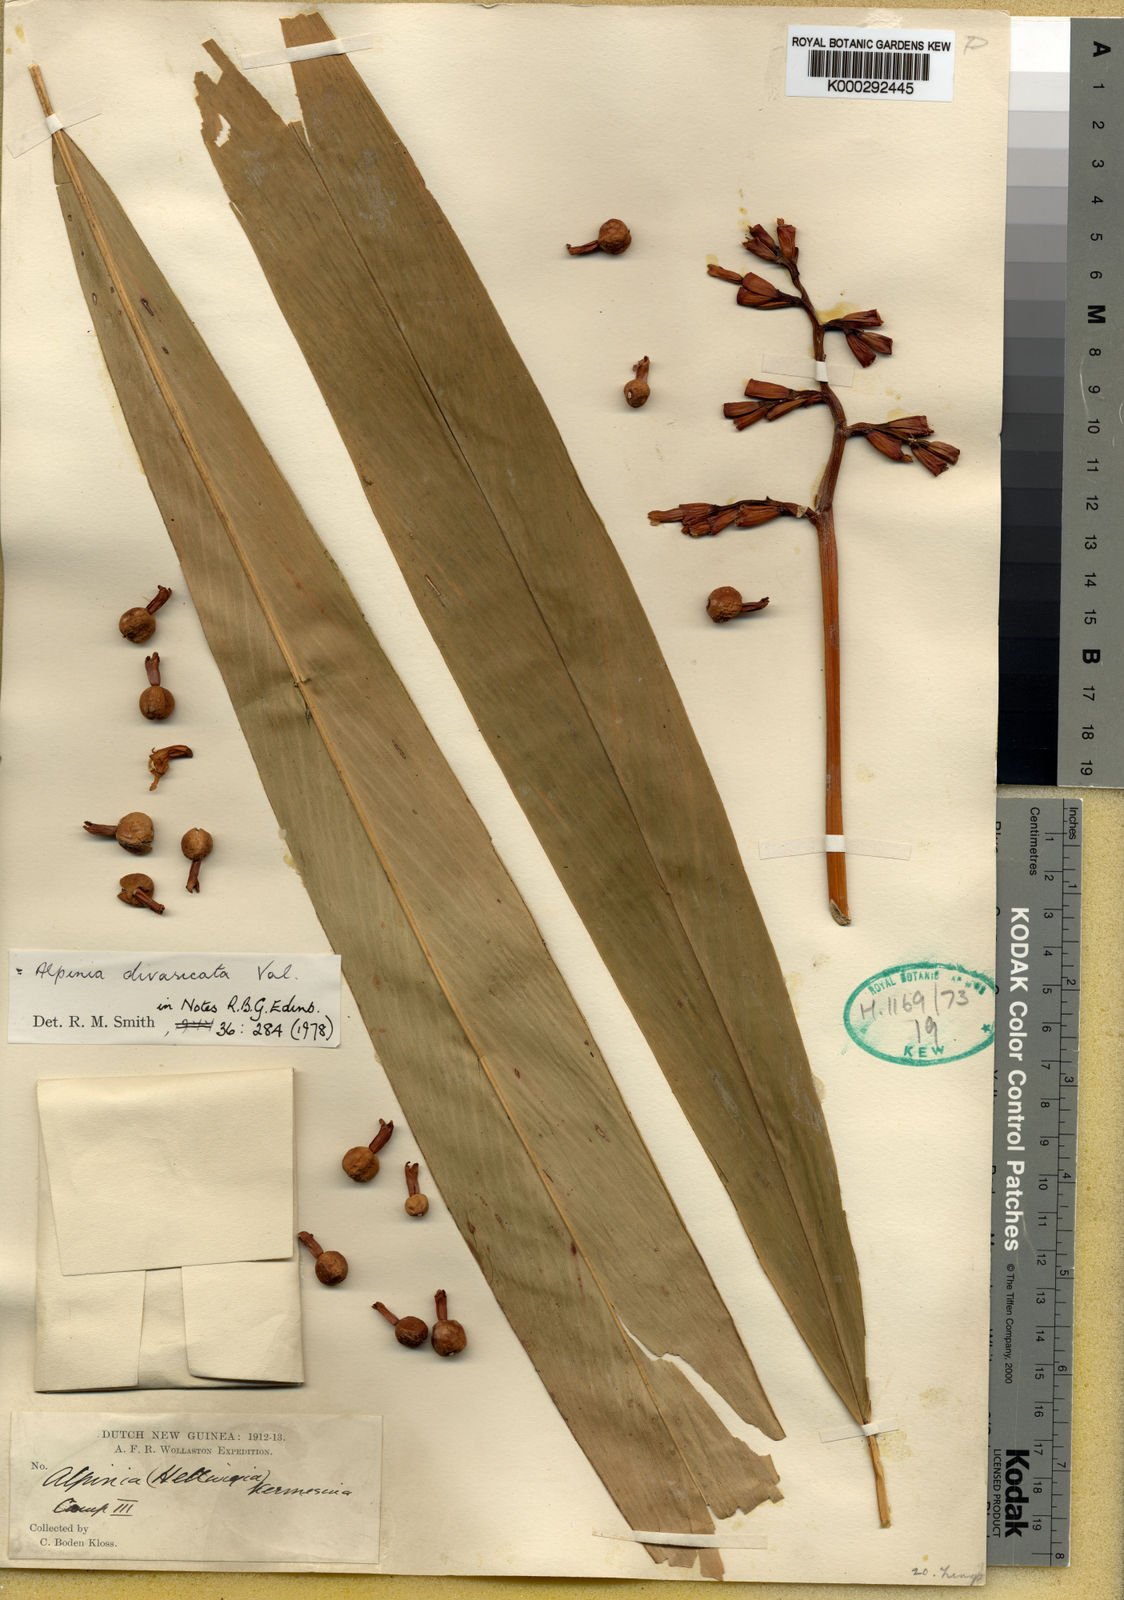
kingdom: Plantae
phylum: Tracheophyta
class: Liliopsida
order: Zingiberales
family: Zingiberaceae
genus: Alpinia
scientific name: Alpinia divaricata
